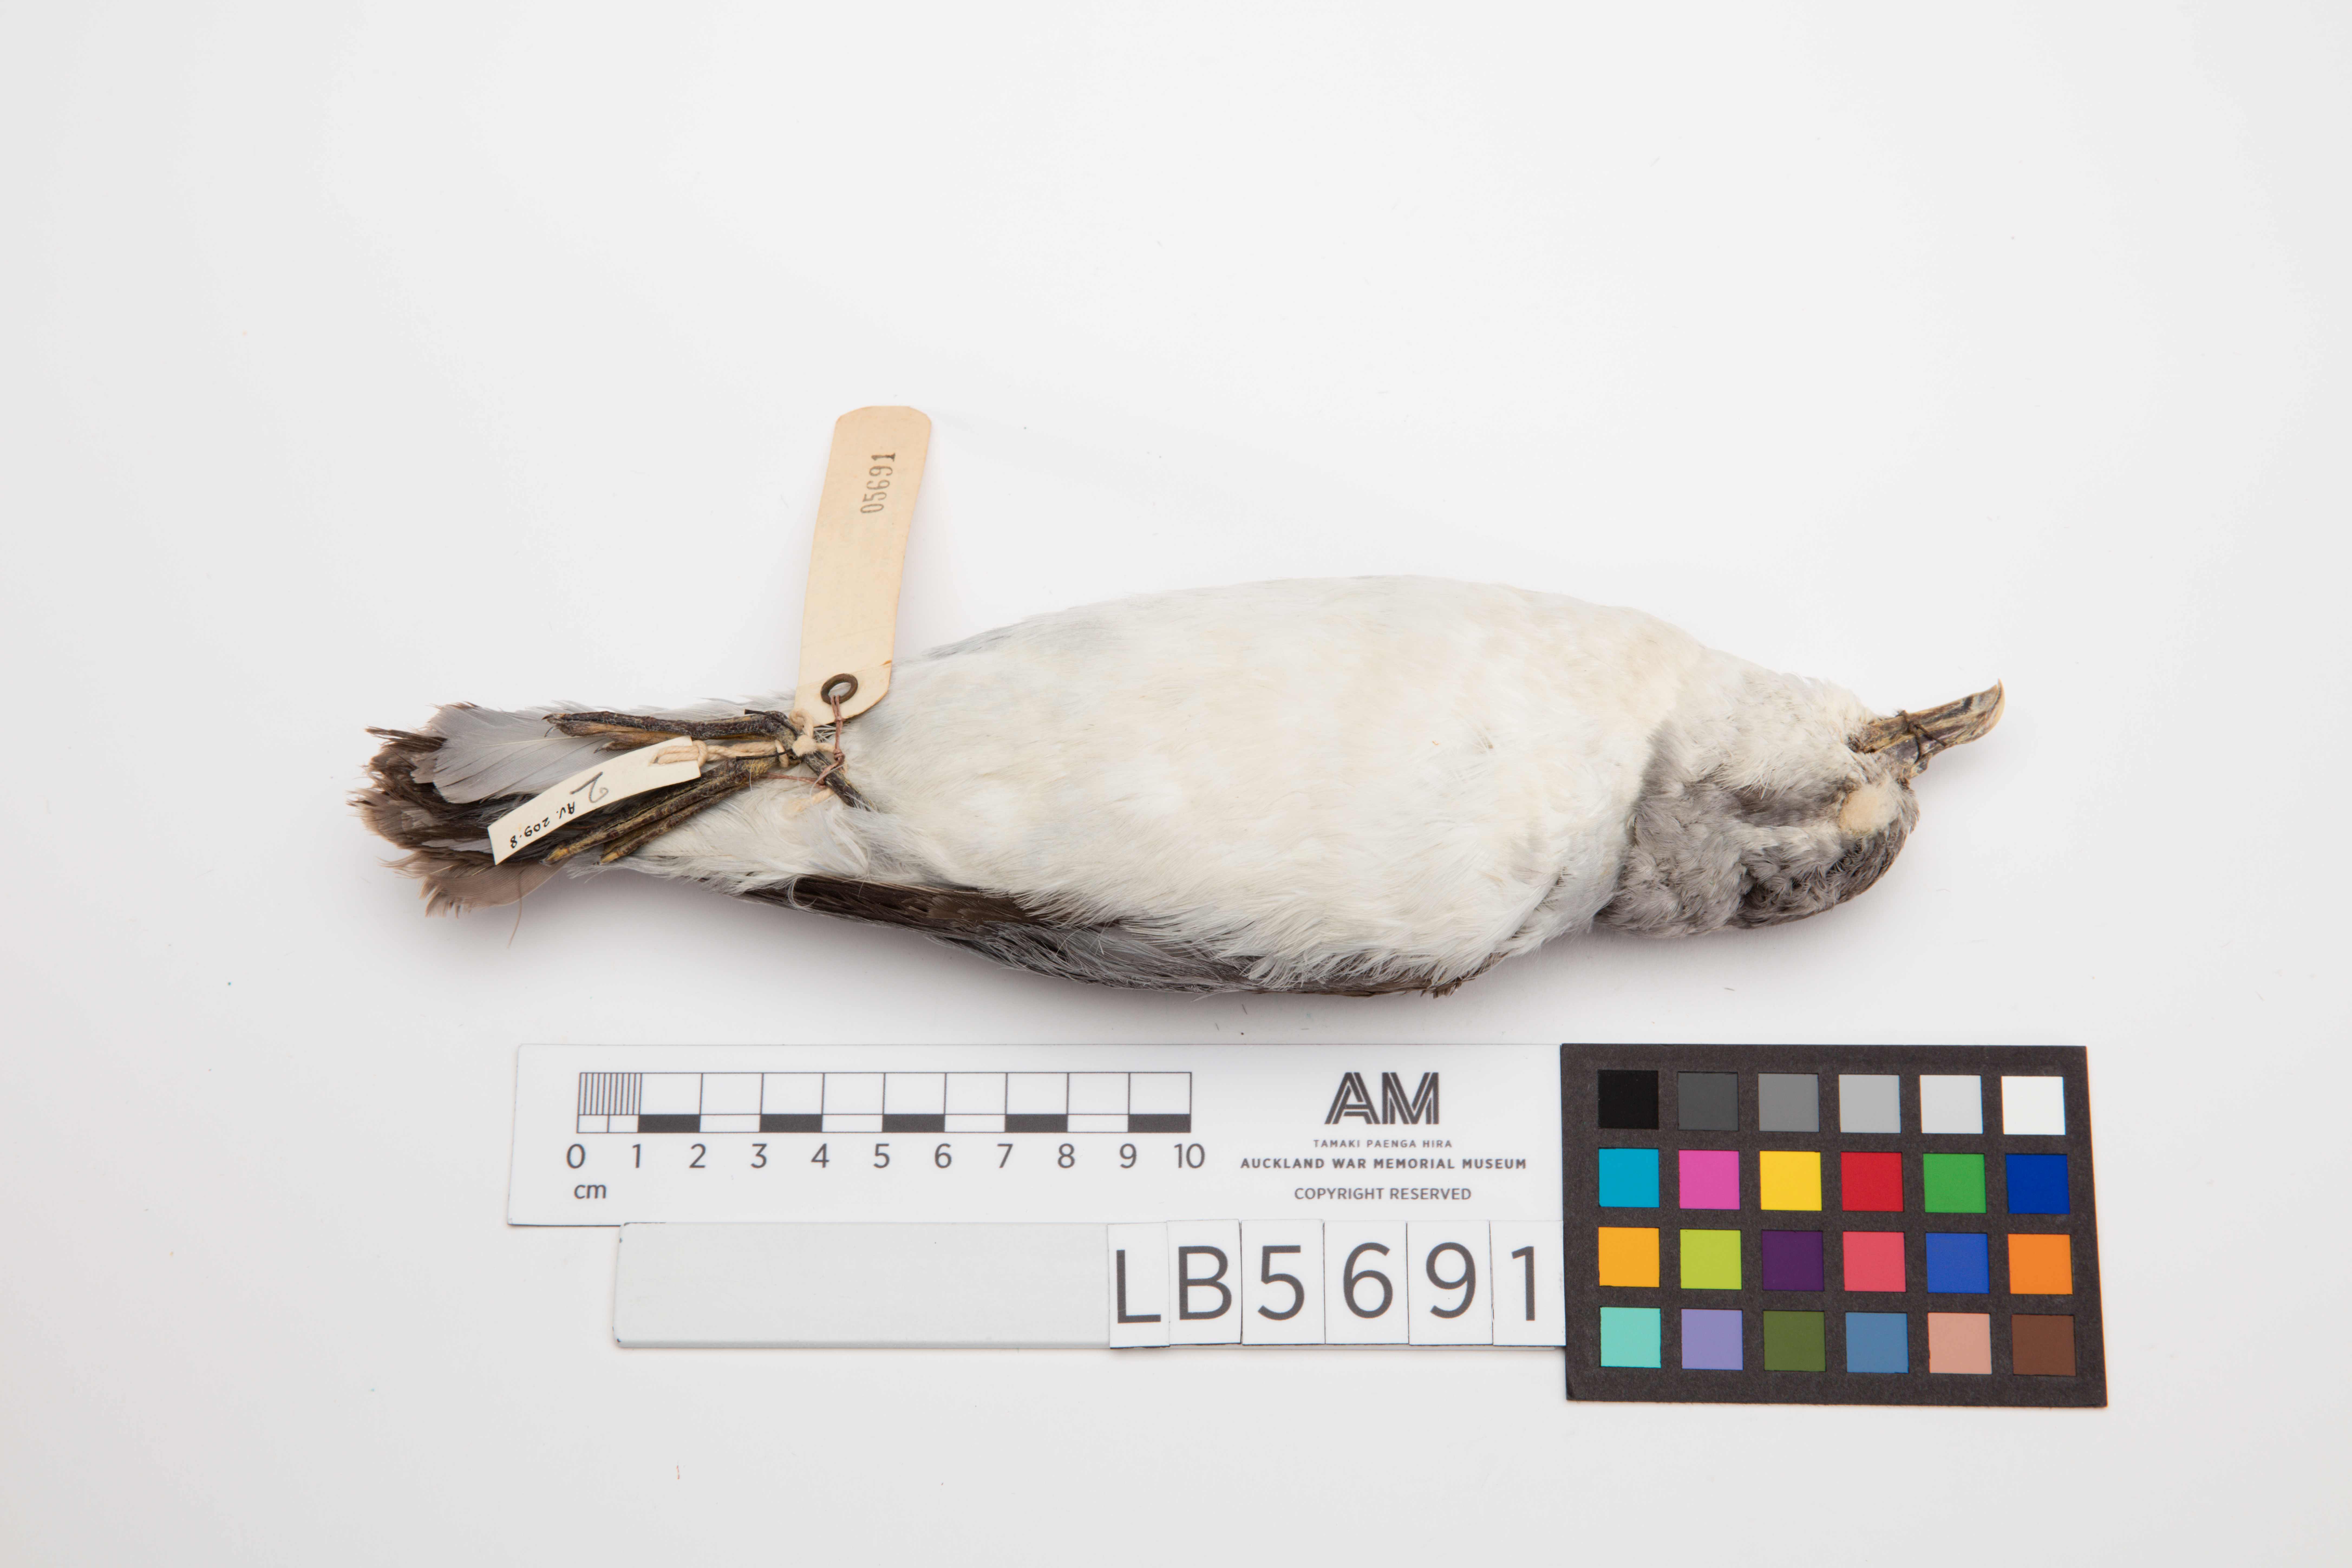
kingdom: Animalia
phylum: Chordata
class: Aves
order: Procellariiformes
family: Procellariidae
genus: Pachyptila
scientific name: Pachyptila turtur
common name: Fairy prion
